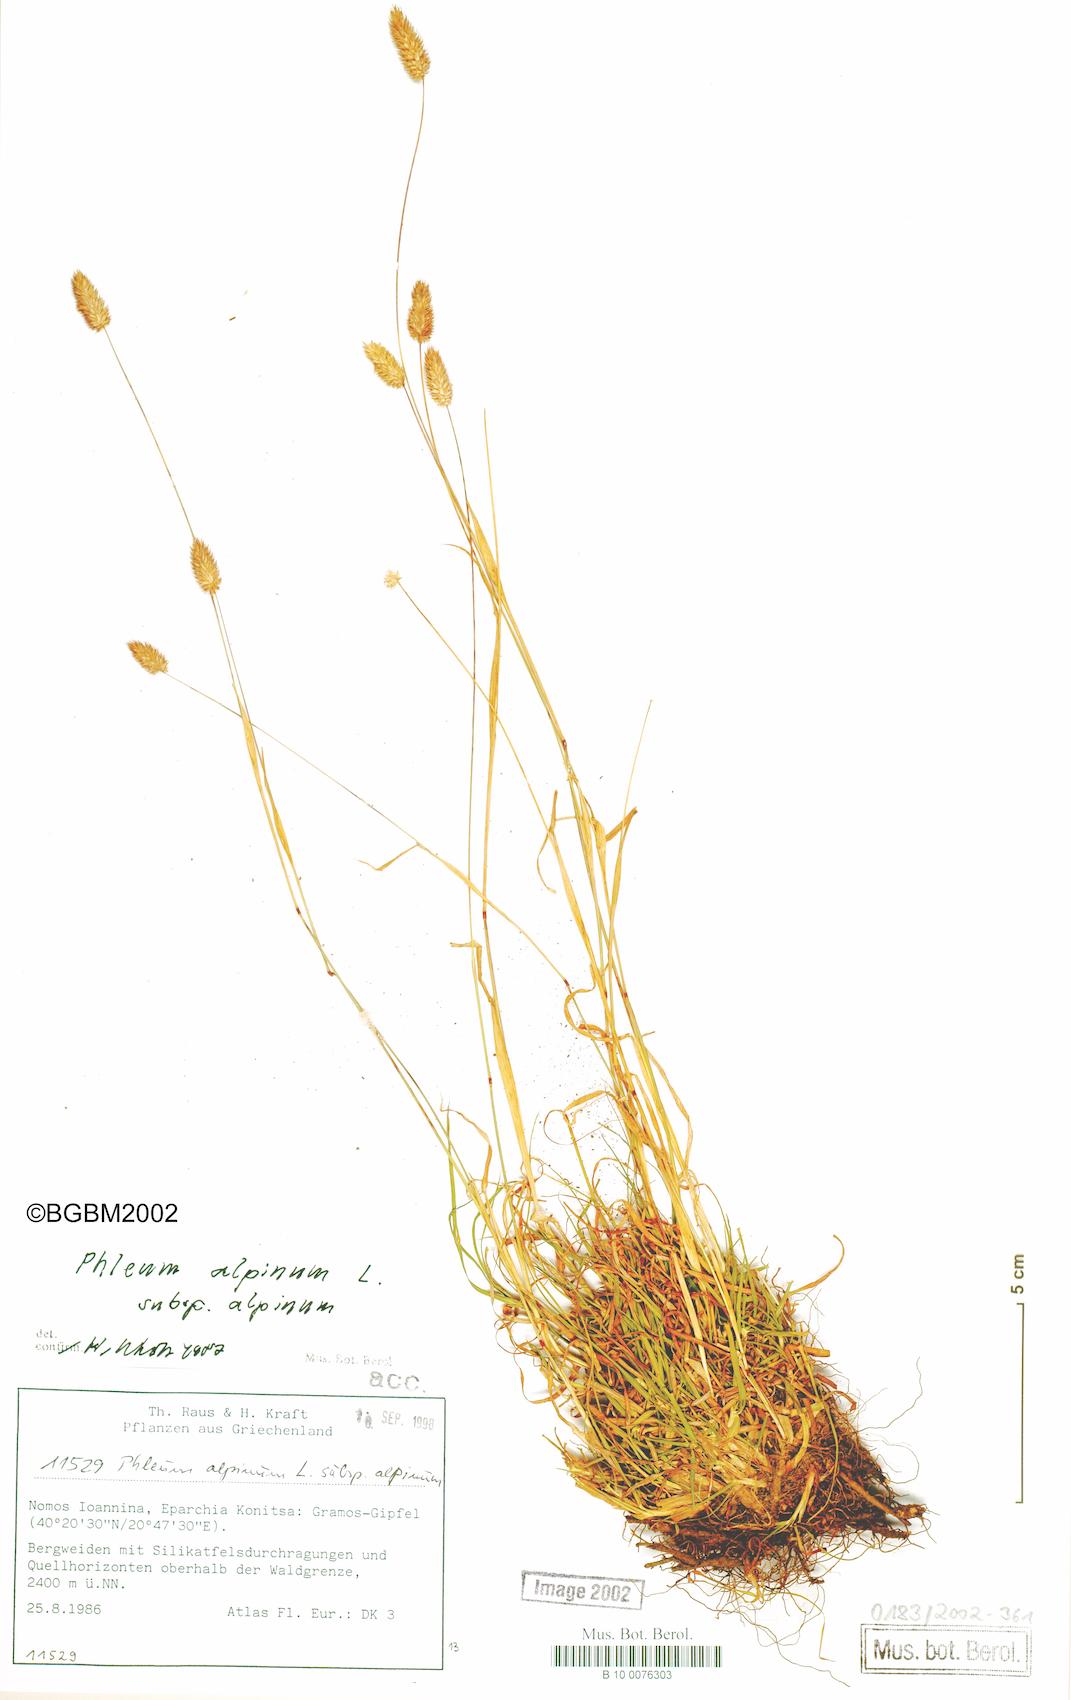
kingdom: Plantae
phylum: Tracheophyta
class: Liliopsida
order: Poales
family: Poaceae
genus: Phleum
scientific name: Phleum alpinum
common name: Alpine cat's-tail
